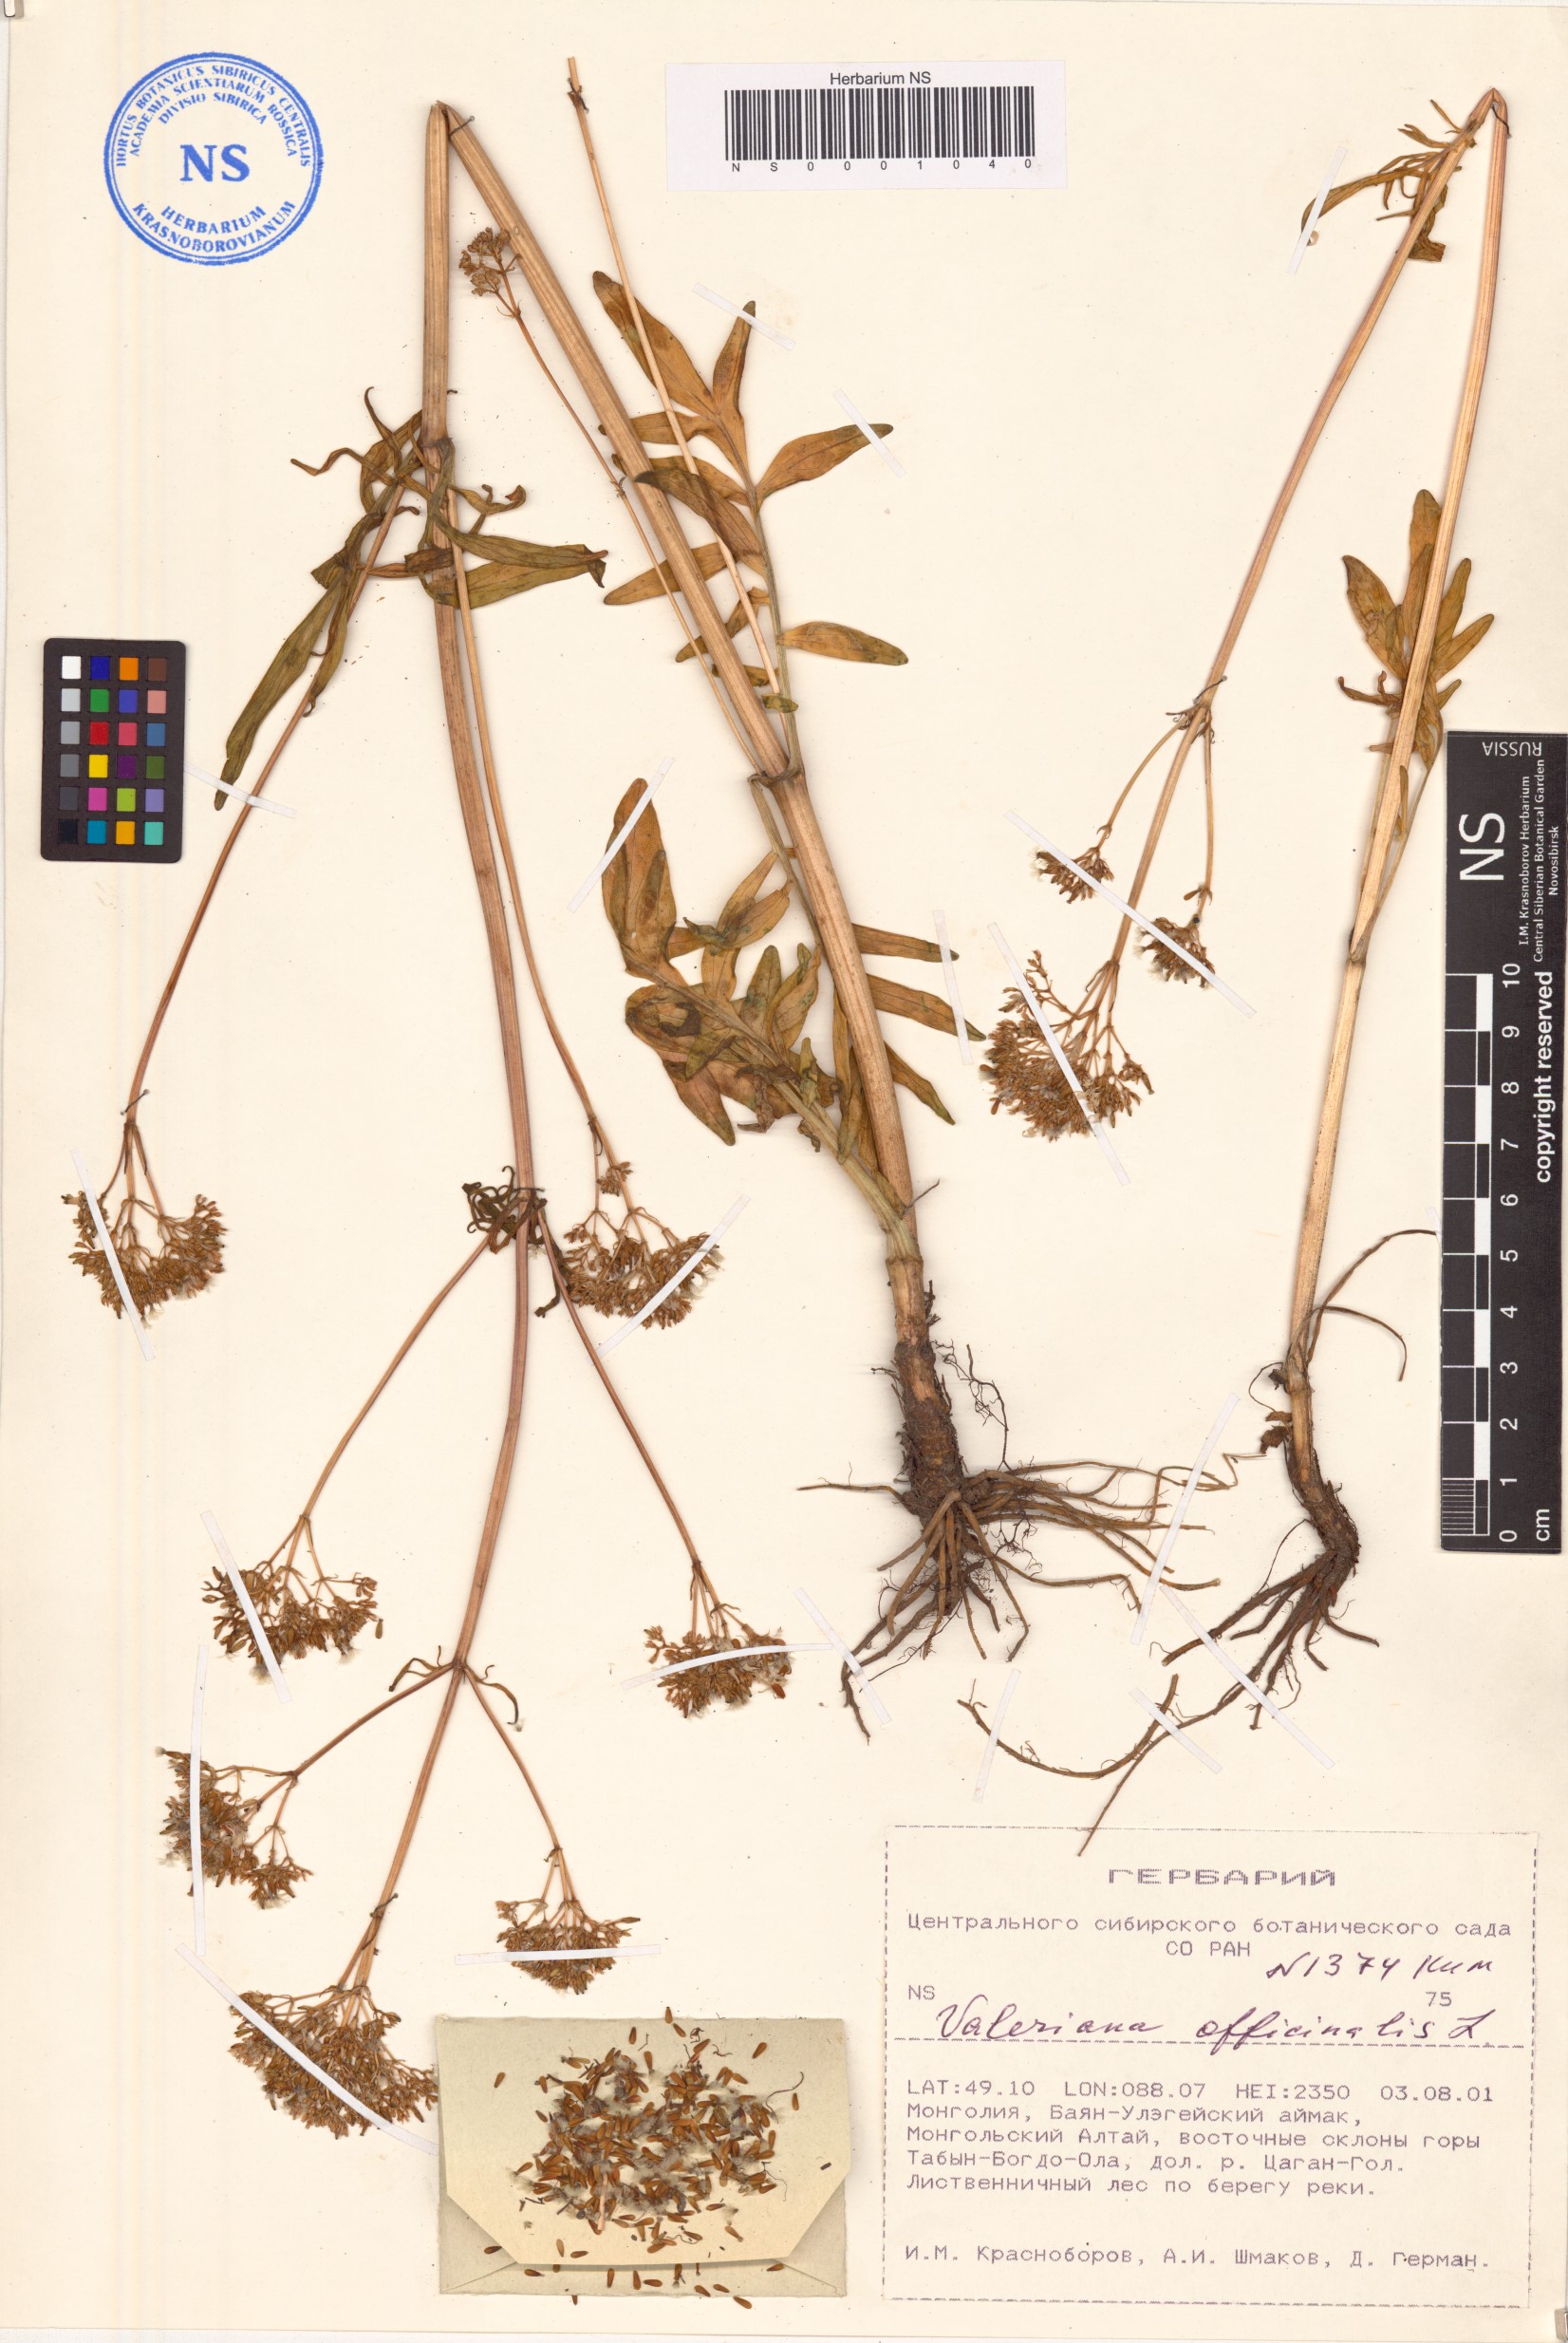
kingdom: Plantae
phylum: Tracheophyta
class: Magnoliopsida
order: Dipsacales
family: Caprifoliaceae
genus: Valeriana
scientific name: Valeriana officinalis
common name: Common valerian
